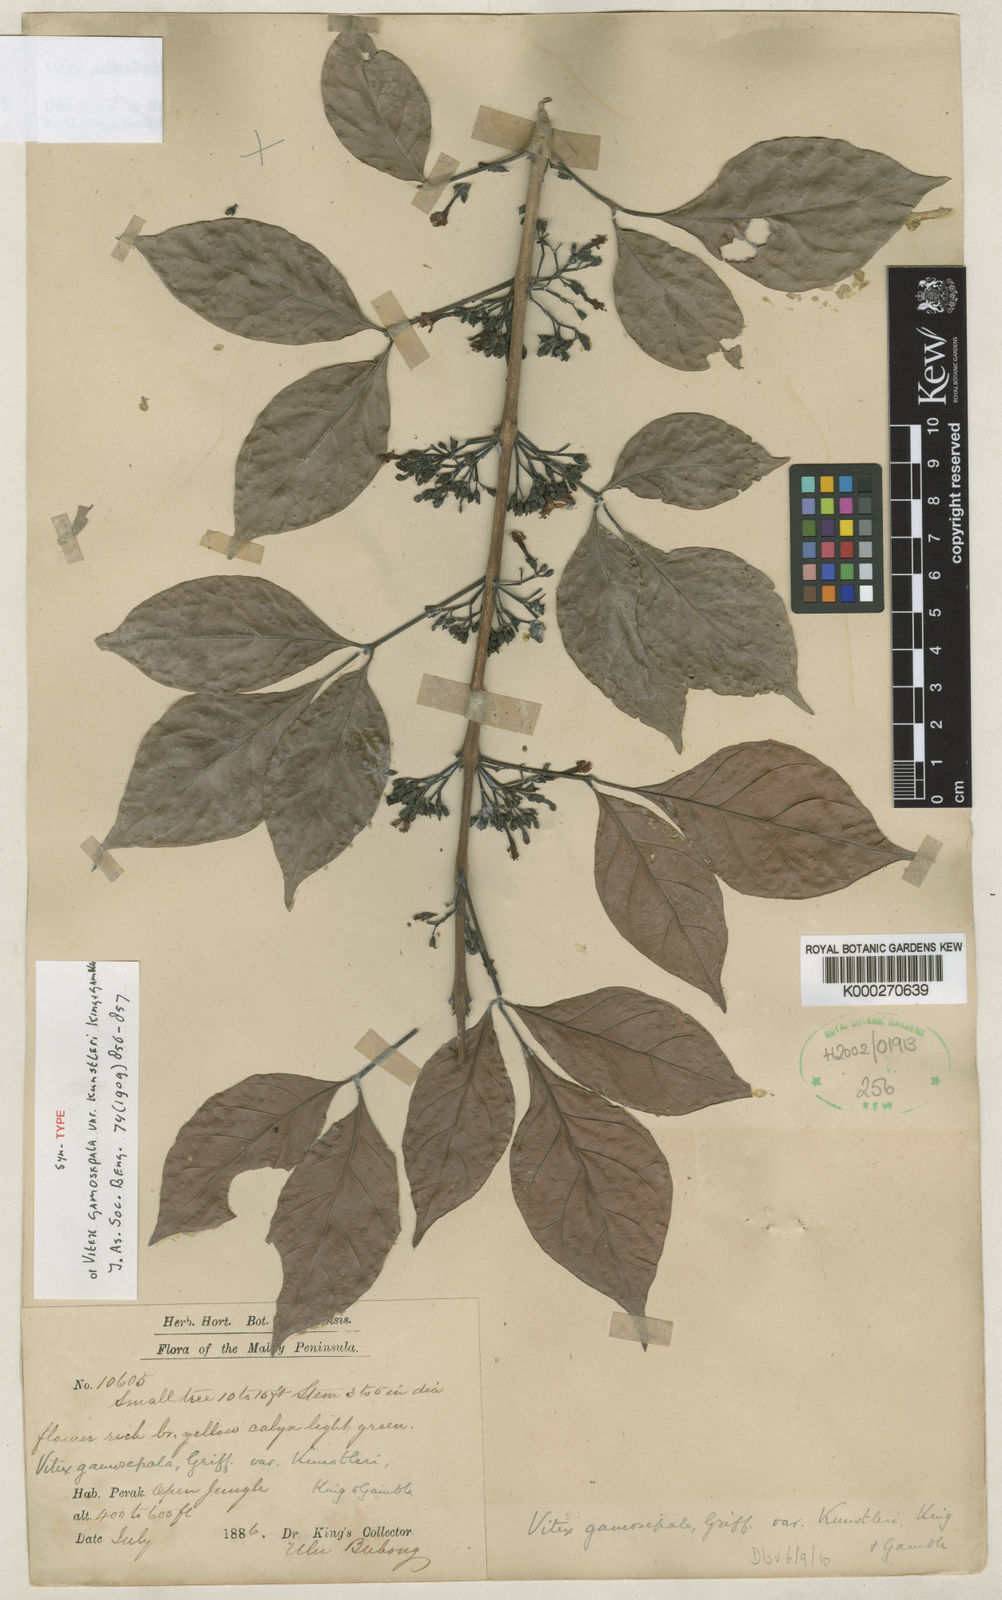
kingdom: Plantae
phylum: Tracheophyta
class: Magnoliopsida
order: Lamiales
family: Lamiaceae
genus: Vitex
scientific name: Vitex gamosepala
